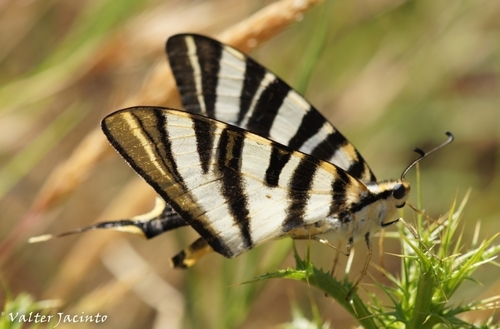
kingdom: Animalia
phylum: Arthropoda
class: Insecta
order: Lepidoptera
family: Papilionidae
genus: Iphiclides
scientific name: Iphiclides feisthamelii
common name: Iberian scarce swallowtail
